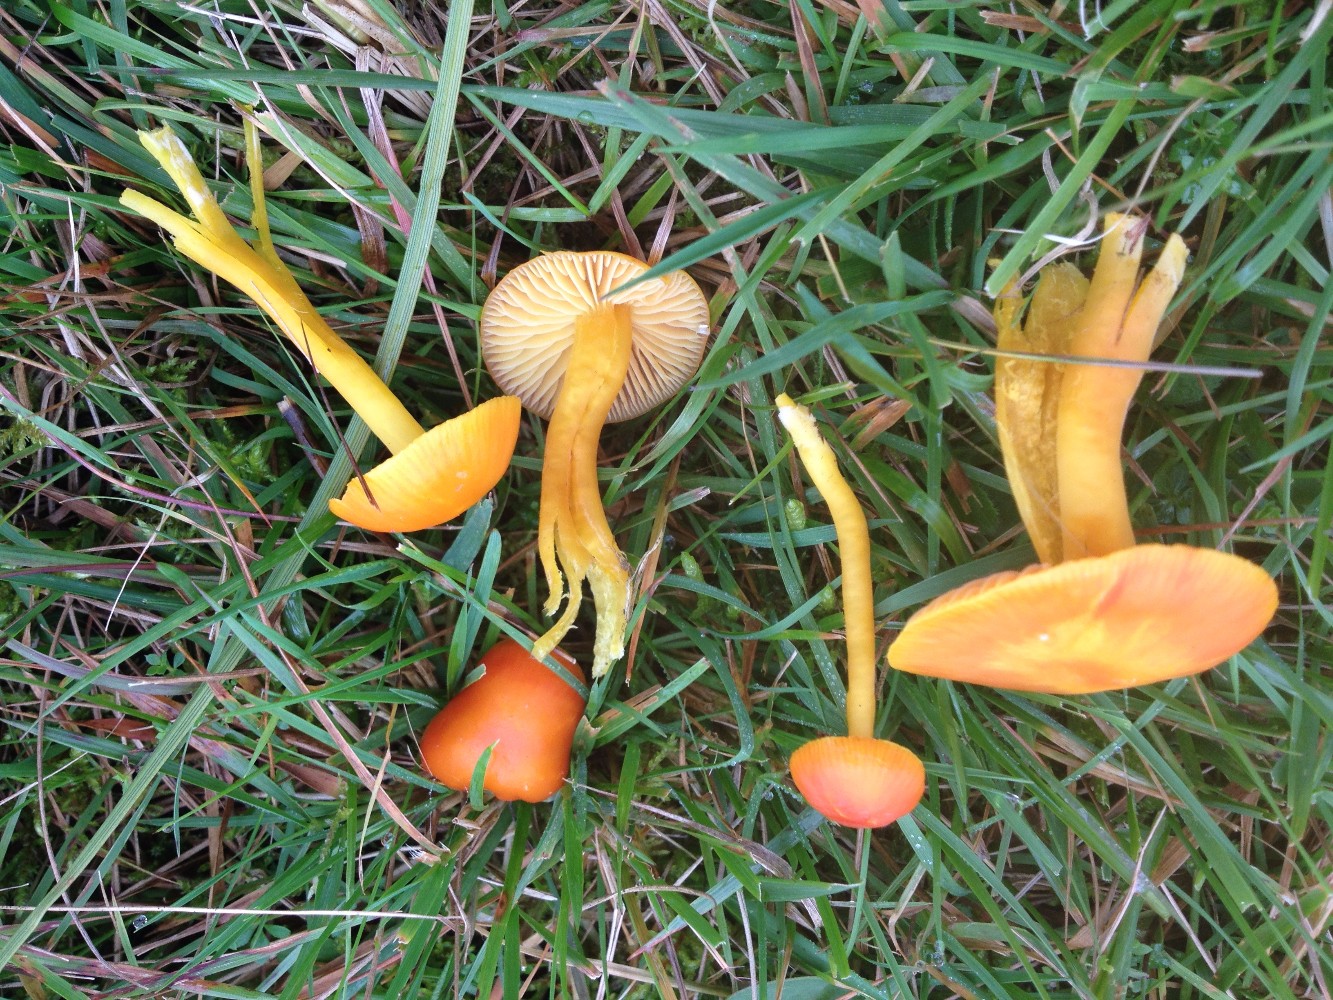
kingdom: Fungi
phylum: Basidiomycota
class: Agaricomycetes
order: Agaricales
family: Hygrophoraceae
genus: Hygrocybe
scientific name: Hygrocybe coccinea
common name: cinnober-vokshat
